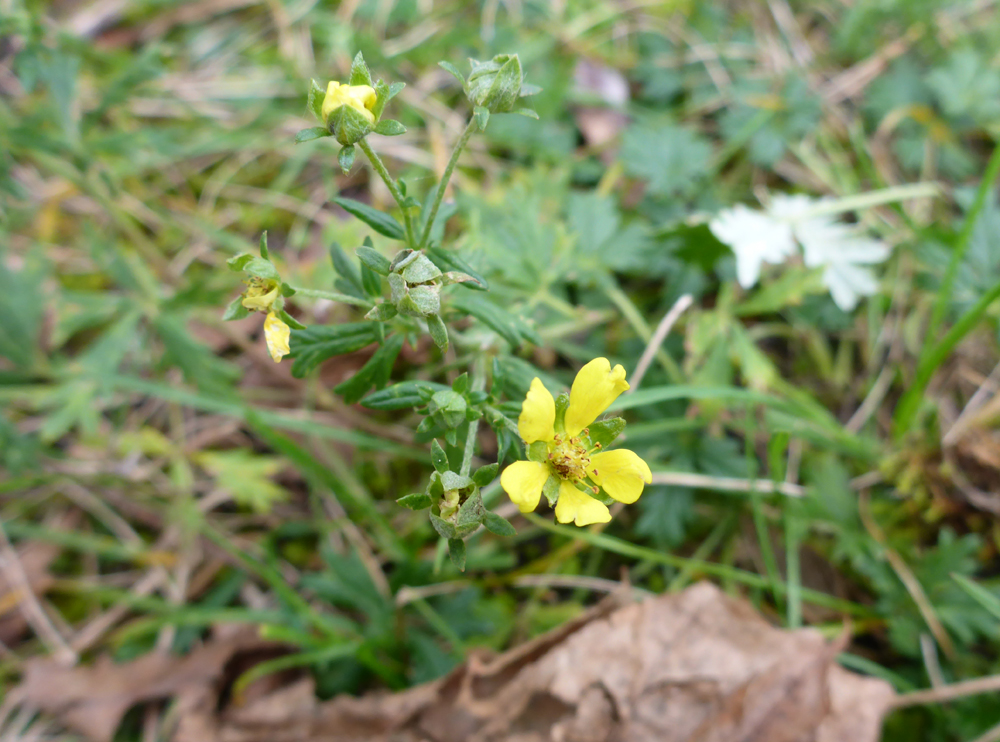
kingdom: Plantae
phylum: Tracheophyta
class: Magnoliopsida
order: Rosales
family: Rosaceae
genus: Potentilla
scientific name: Potentilla argentea
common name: Hoary cinquefoil
